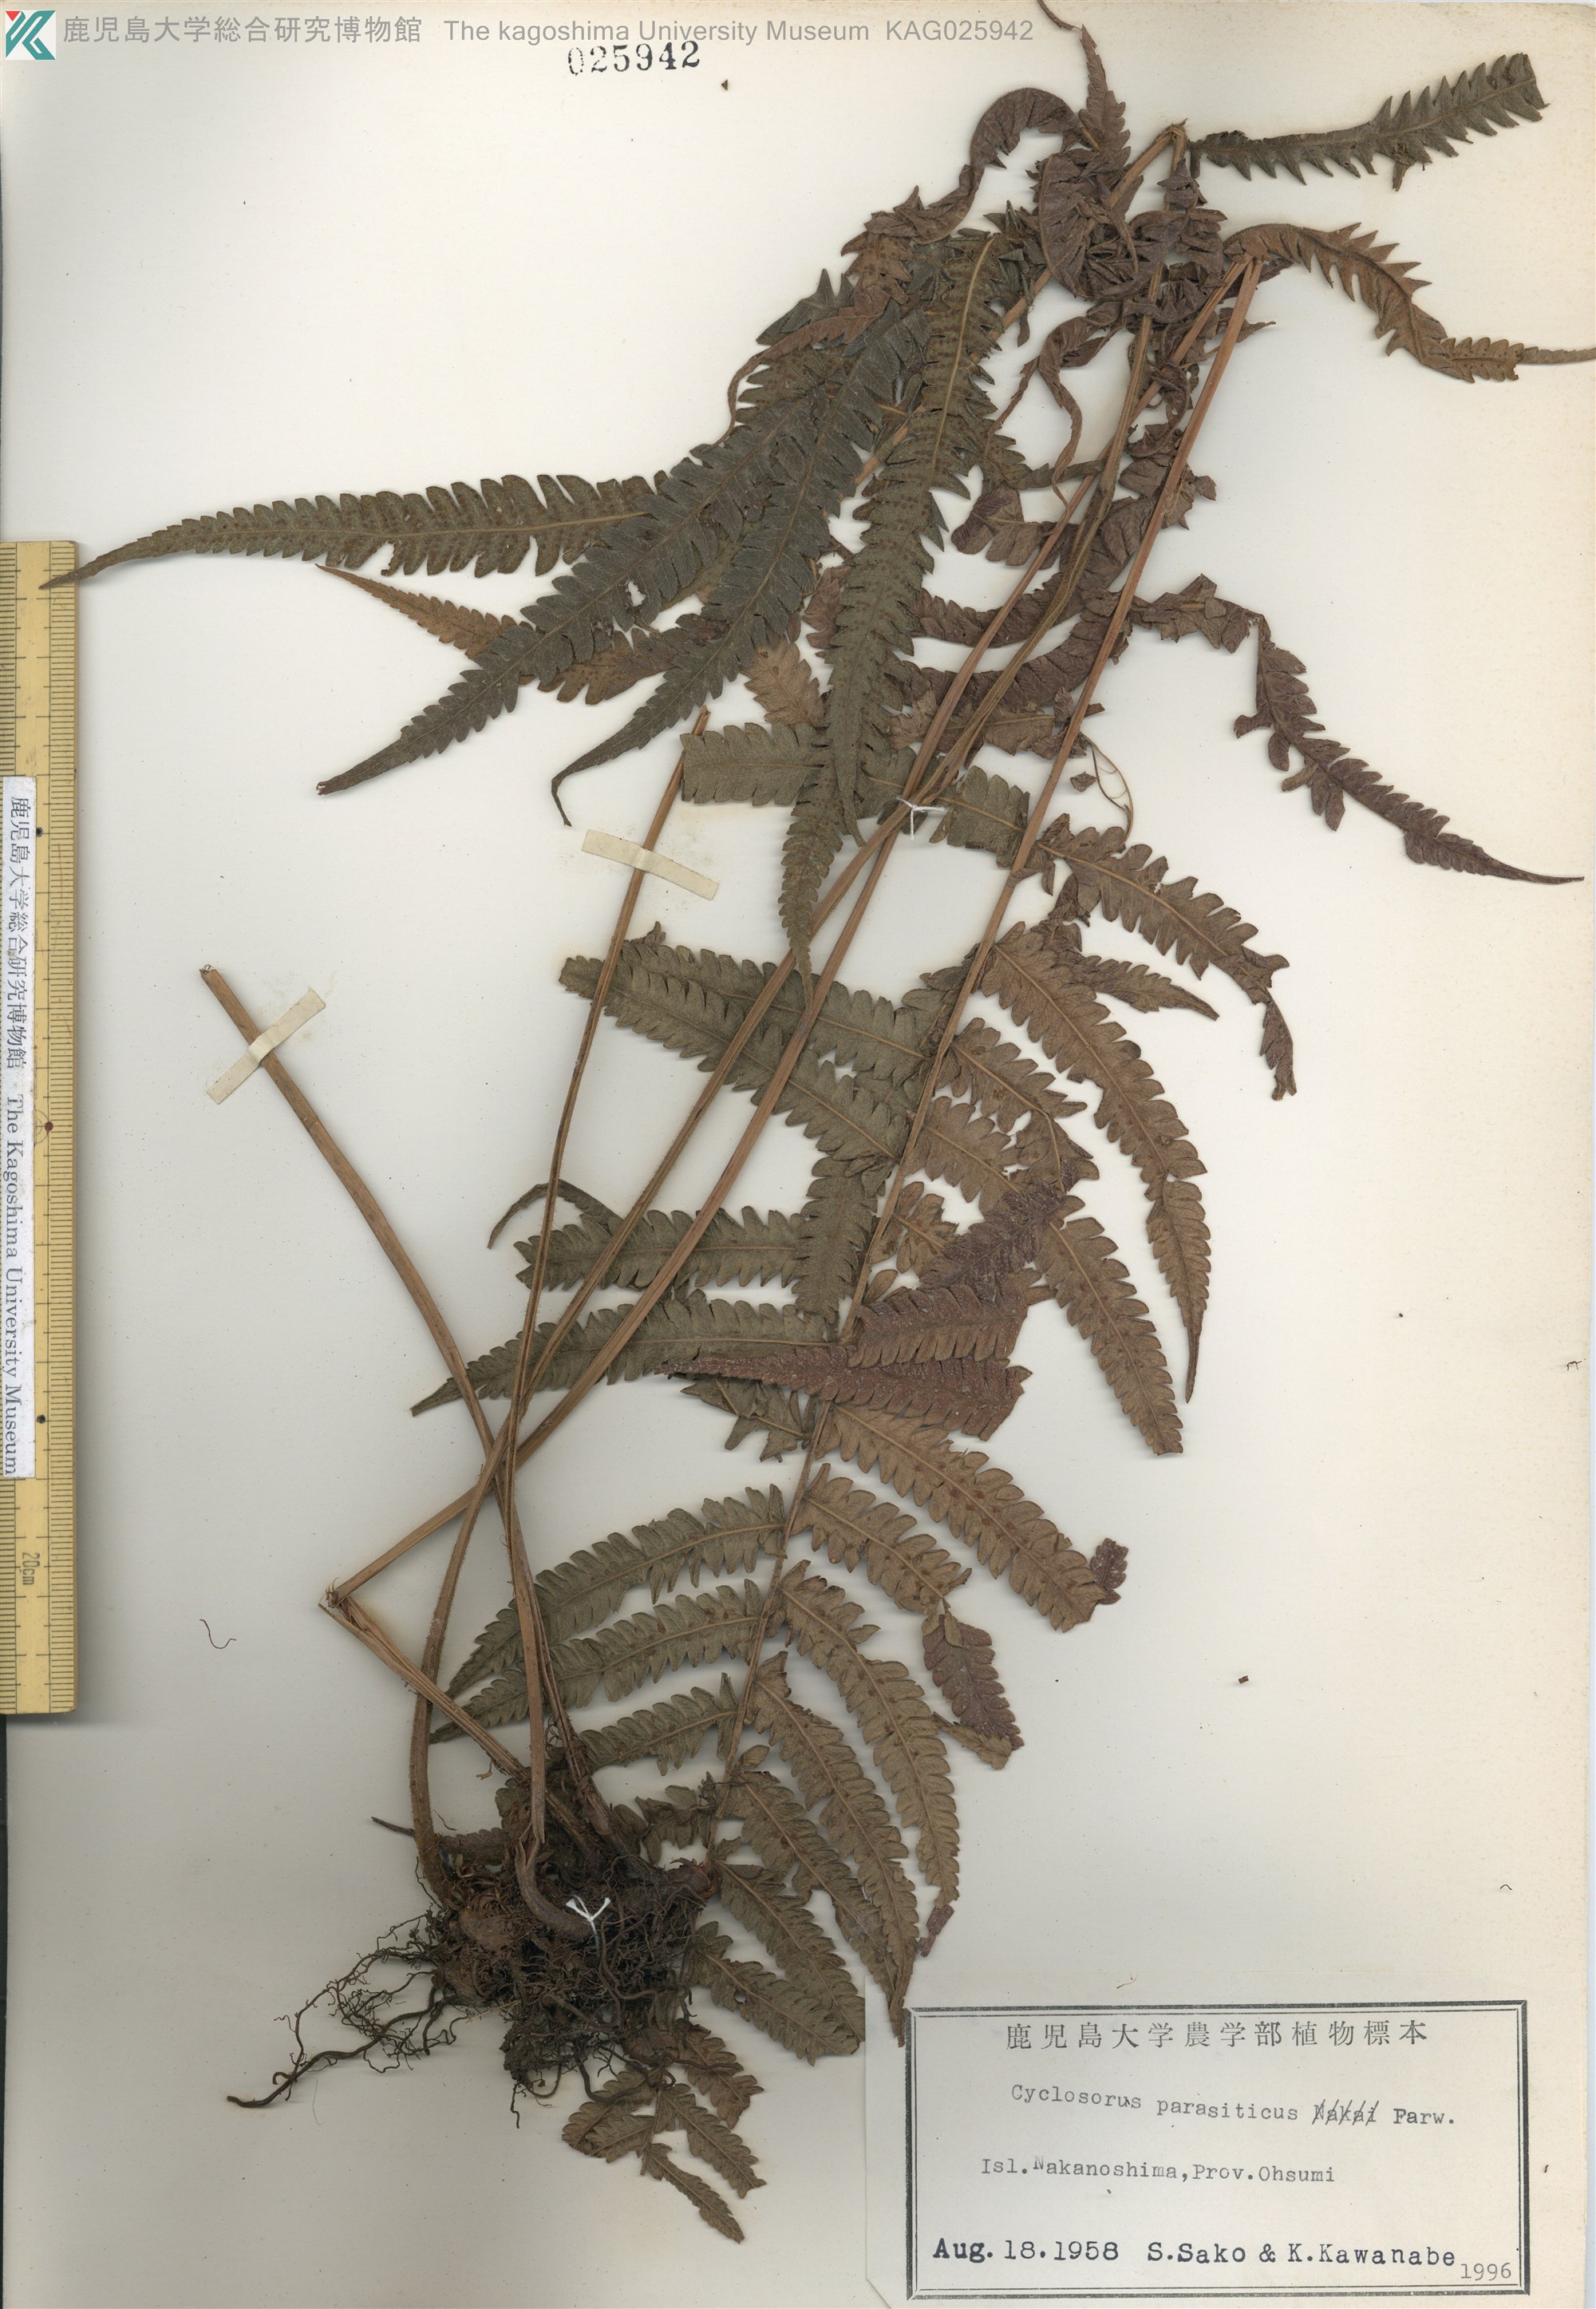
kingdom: Plantae
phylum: Tracheophyta
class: Polypodiopsida
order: Polypodiales
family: Thelypteridaceae
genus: Christella
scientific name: Christella parasitica
